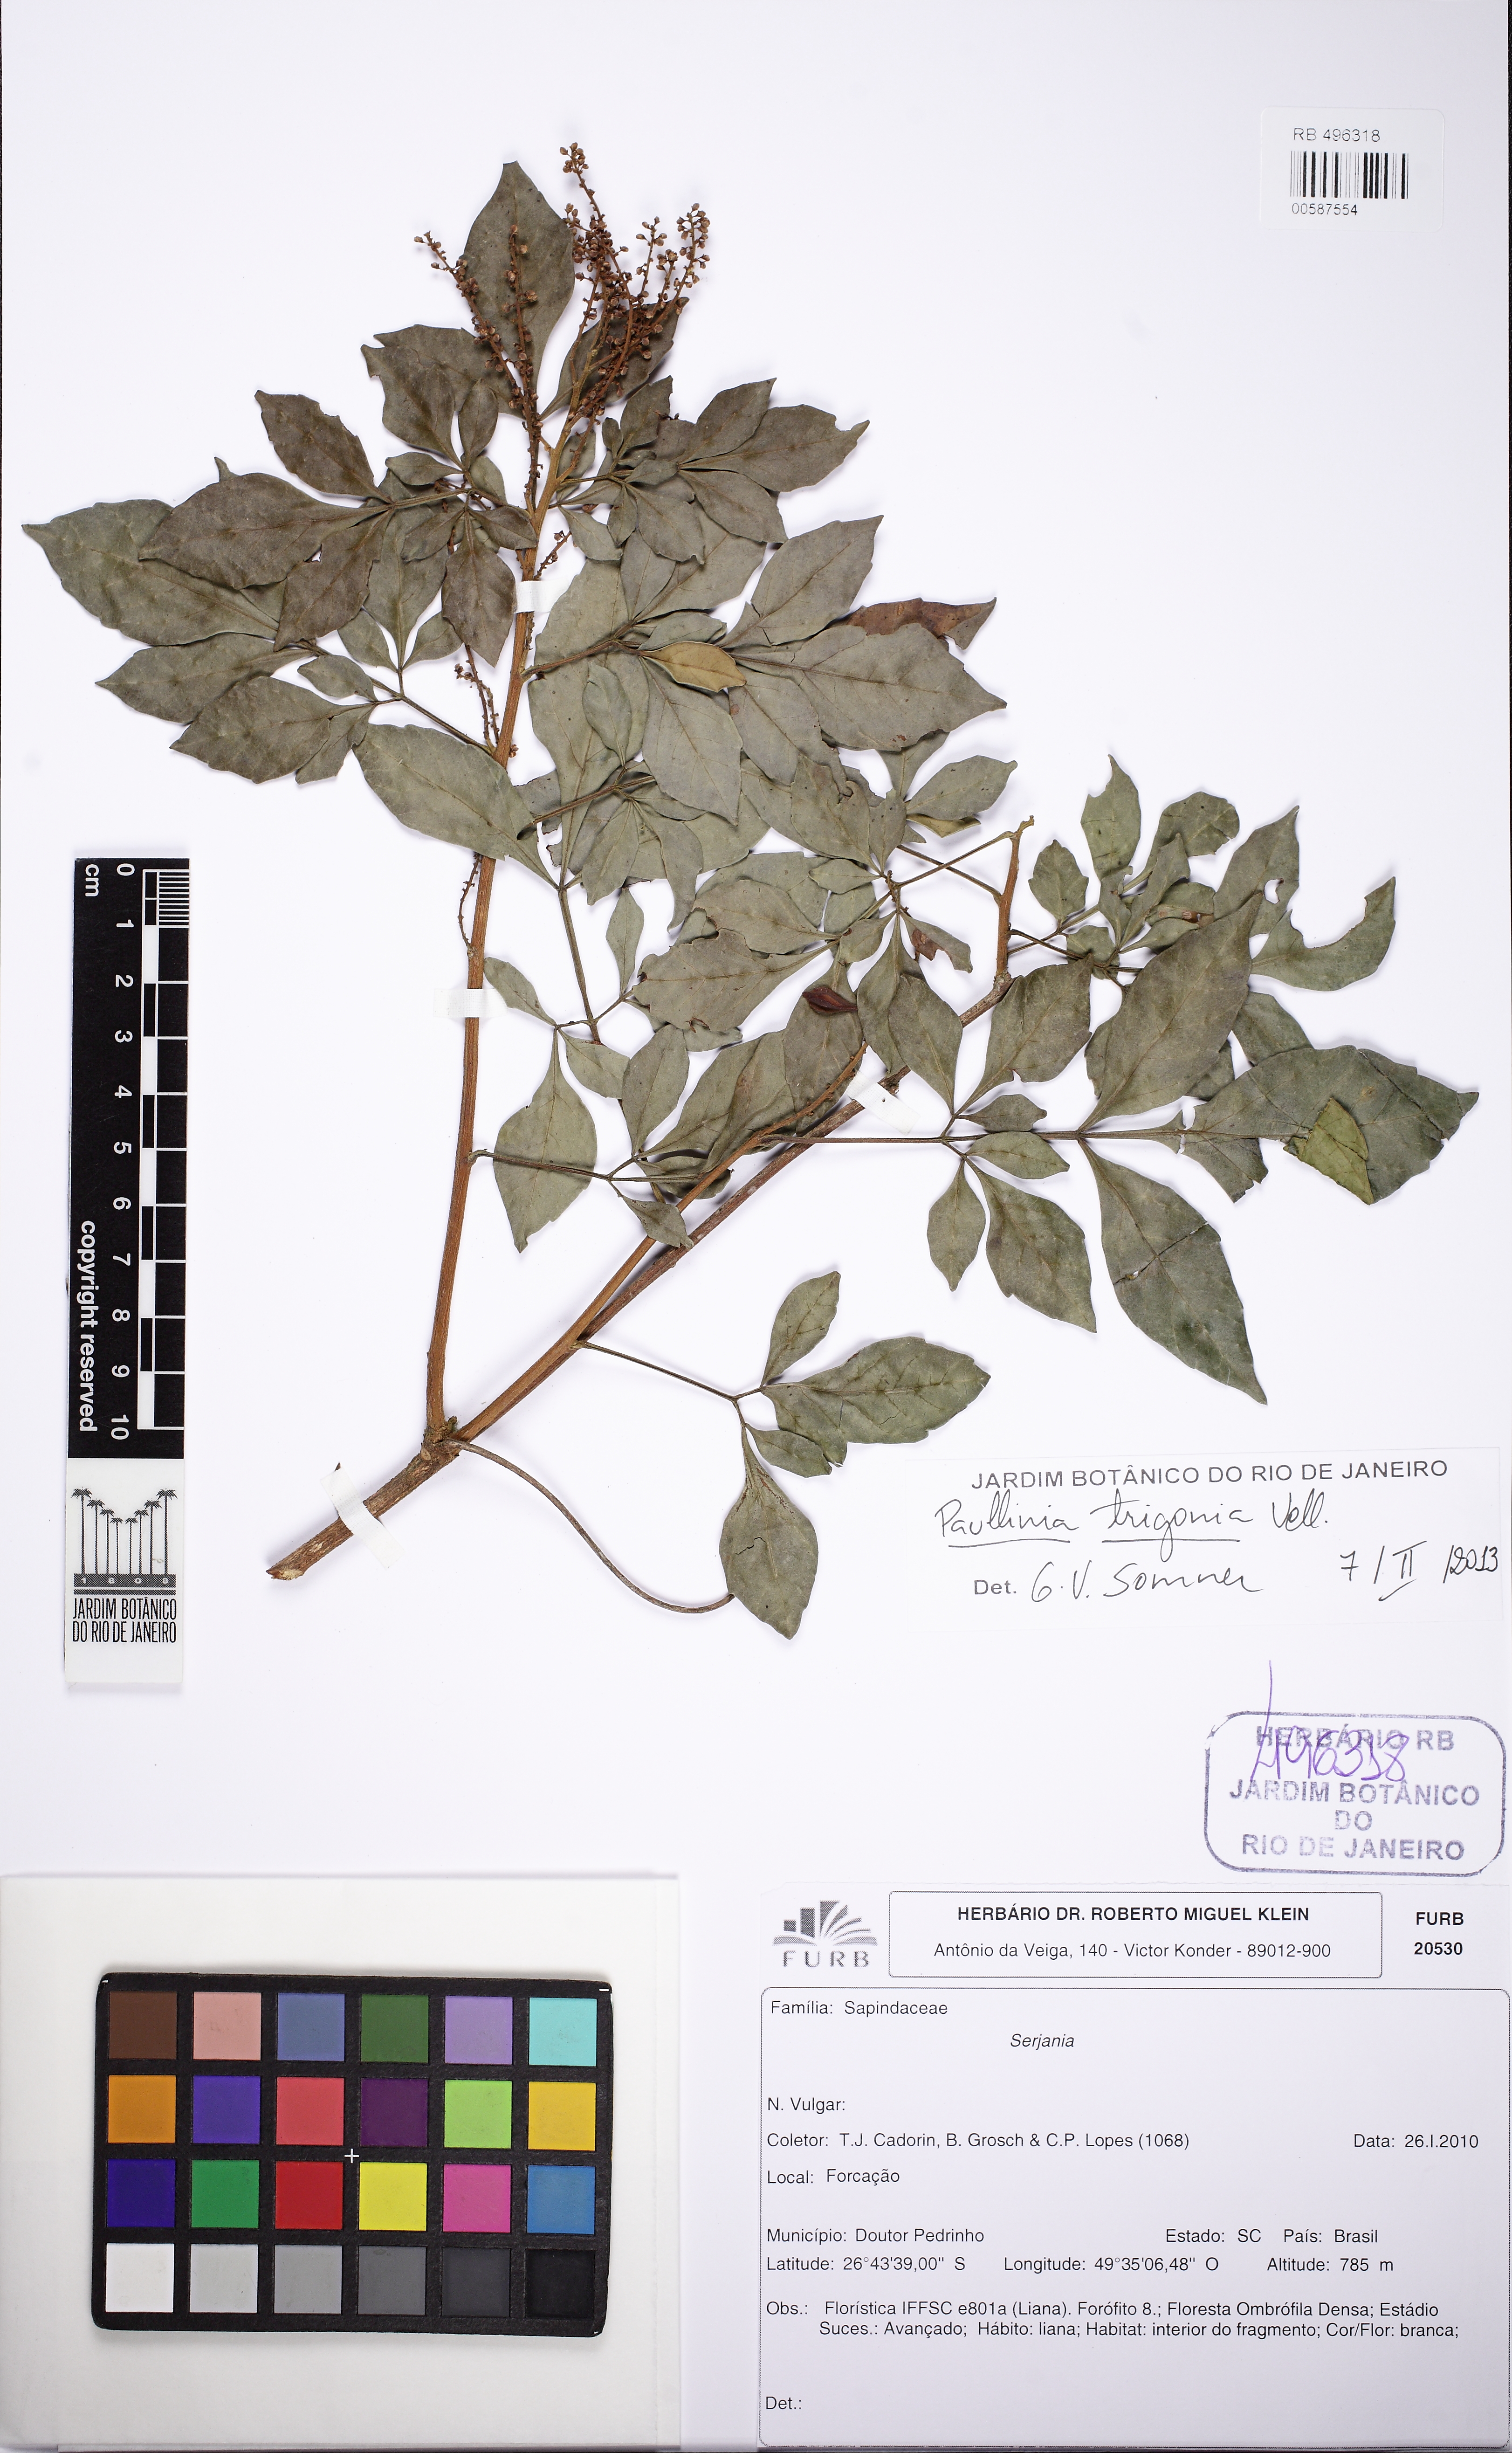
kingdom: Plantae
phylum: Tracheophyta
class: Magnoliopsida
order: Sapindales
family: Sapindaceae
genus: Paullinia
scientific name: Paullinia trigonia
